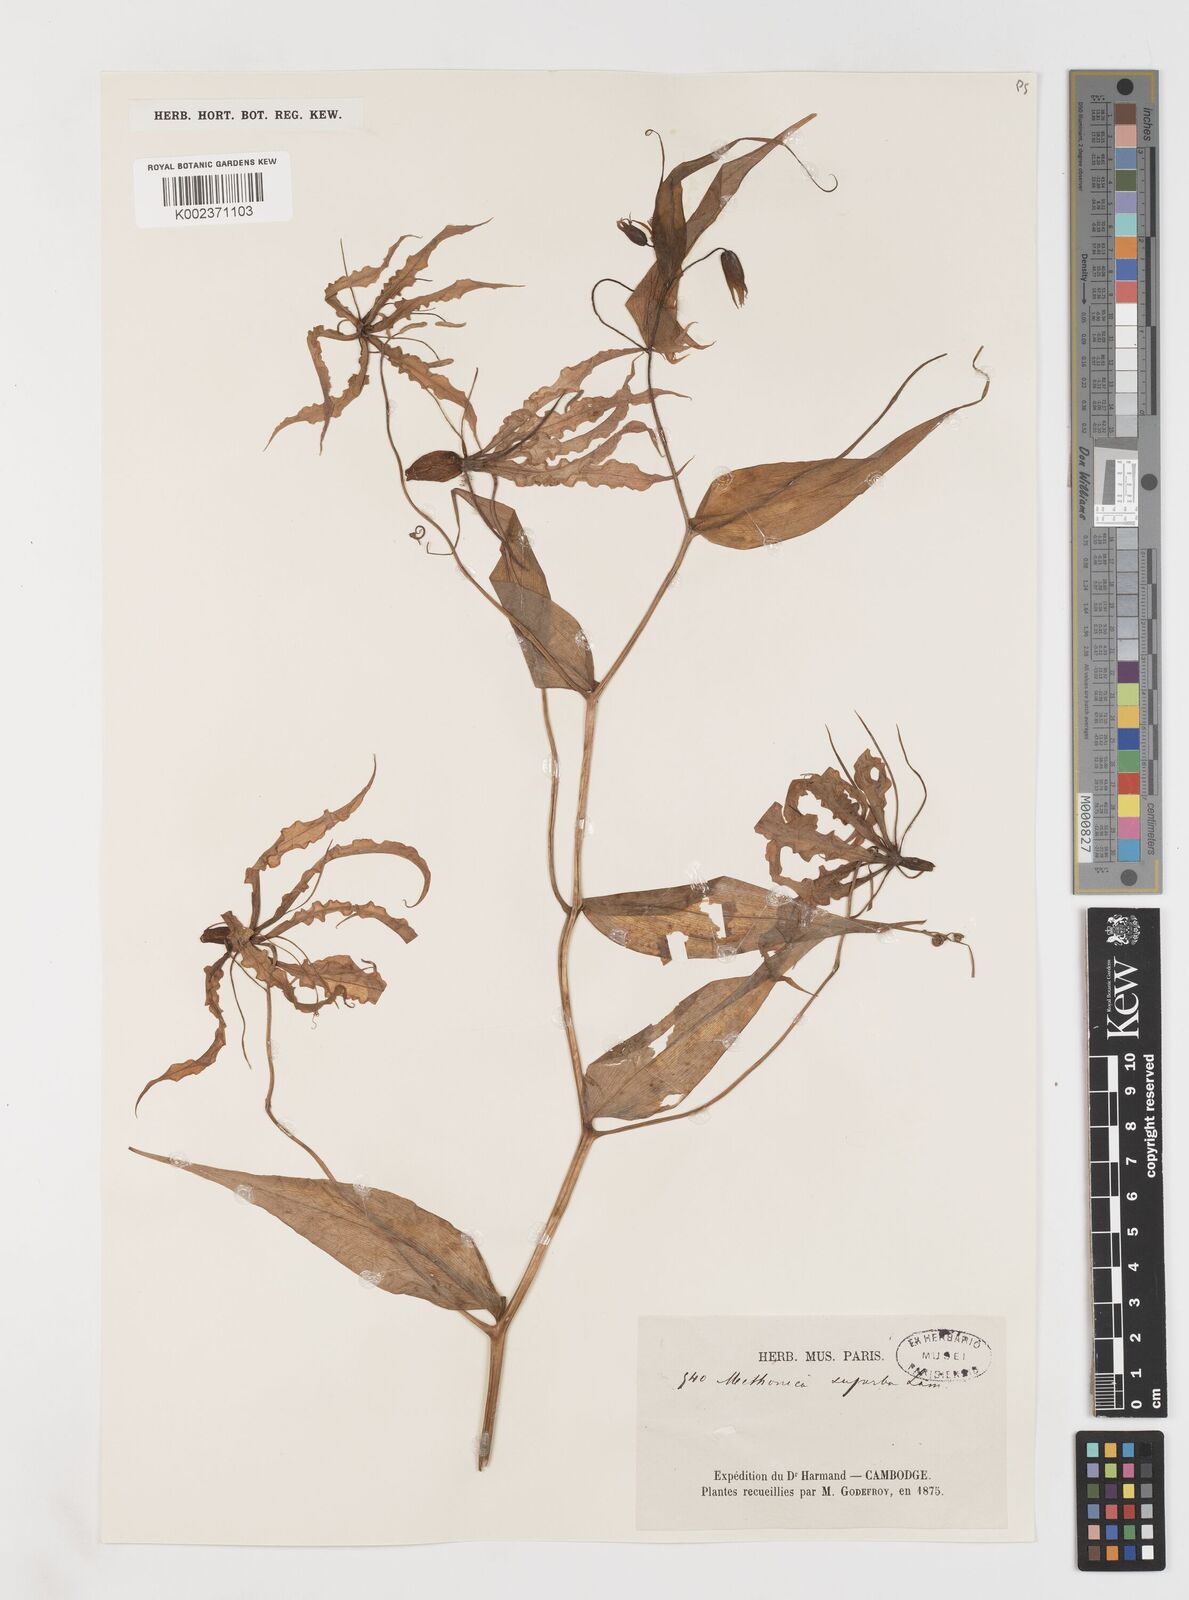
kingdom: Plantae
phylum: Tracheophyta
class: Liliopsida
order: Liliales
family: Colchicaceae
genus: Gloriosa
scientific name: Gloriosa superba
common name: Flame lily
